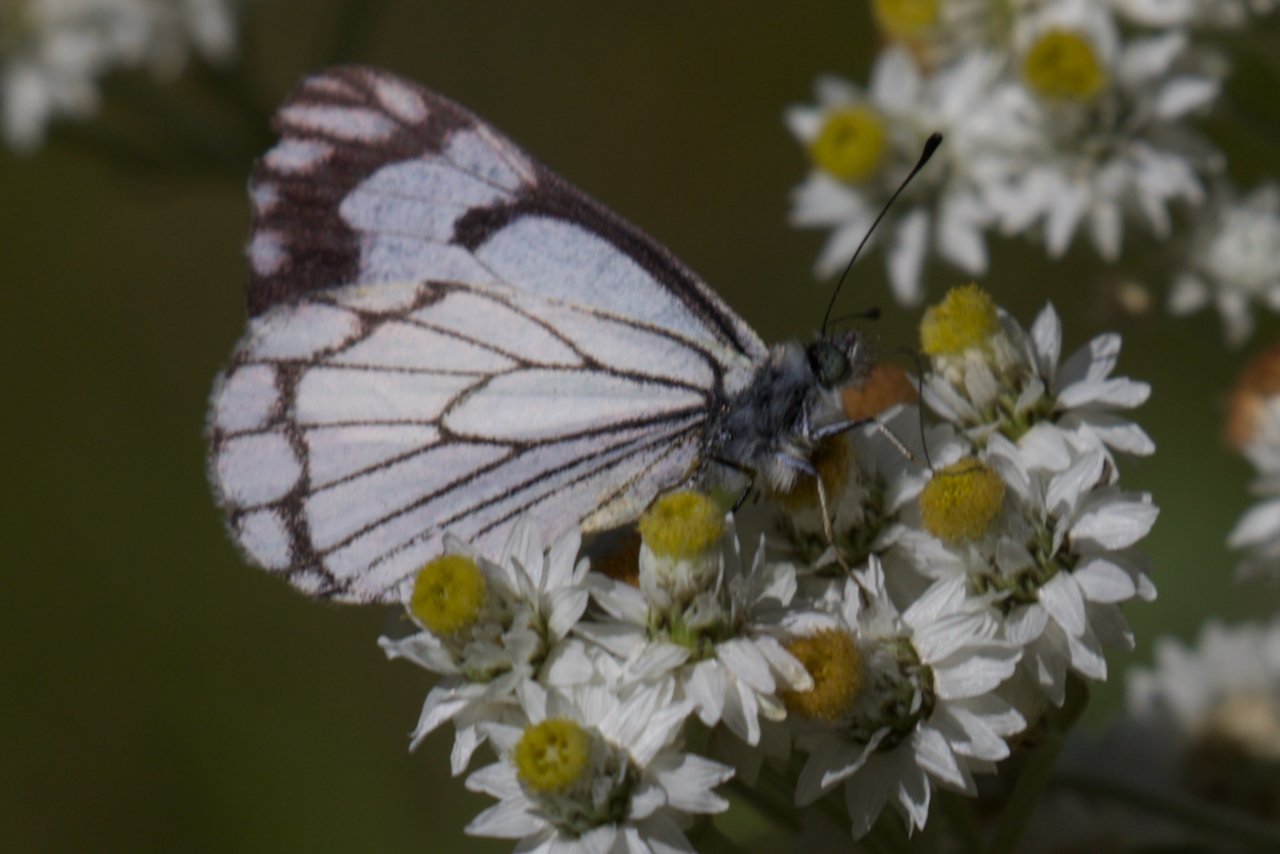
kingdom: Animalia
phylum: Arthropoda
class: Insecta
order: Lepidoptera
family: Pieridae
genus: Neophasia
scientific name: Neophasia menapia
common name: Pine White
